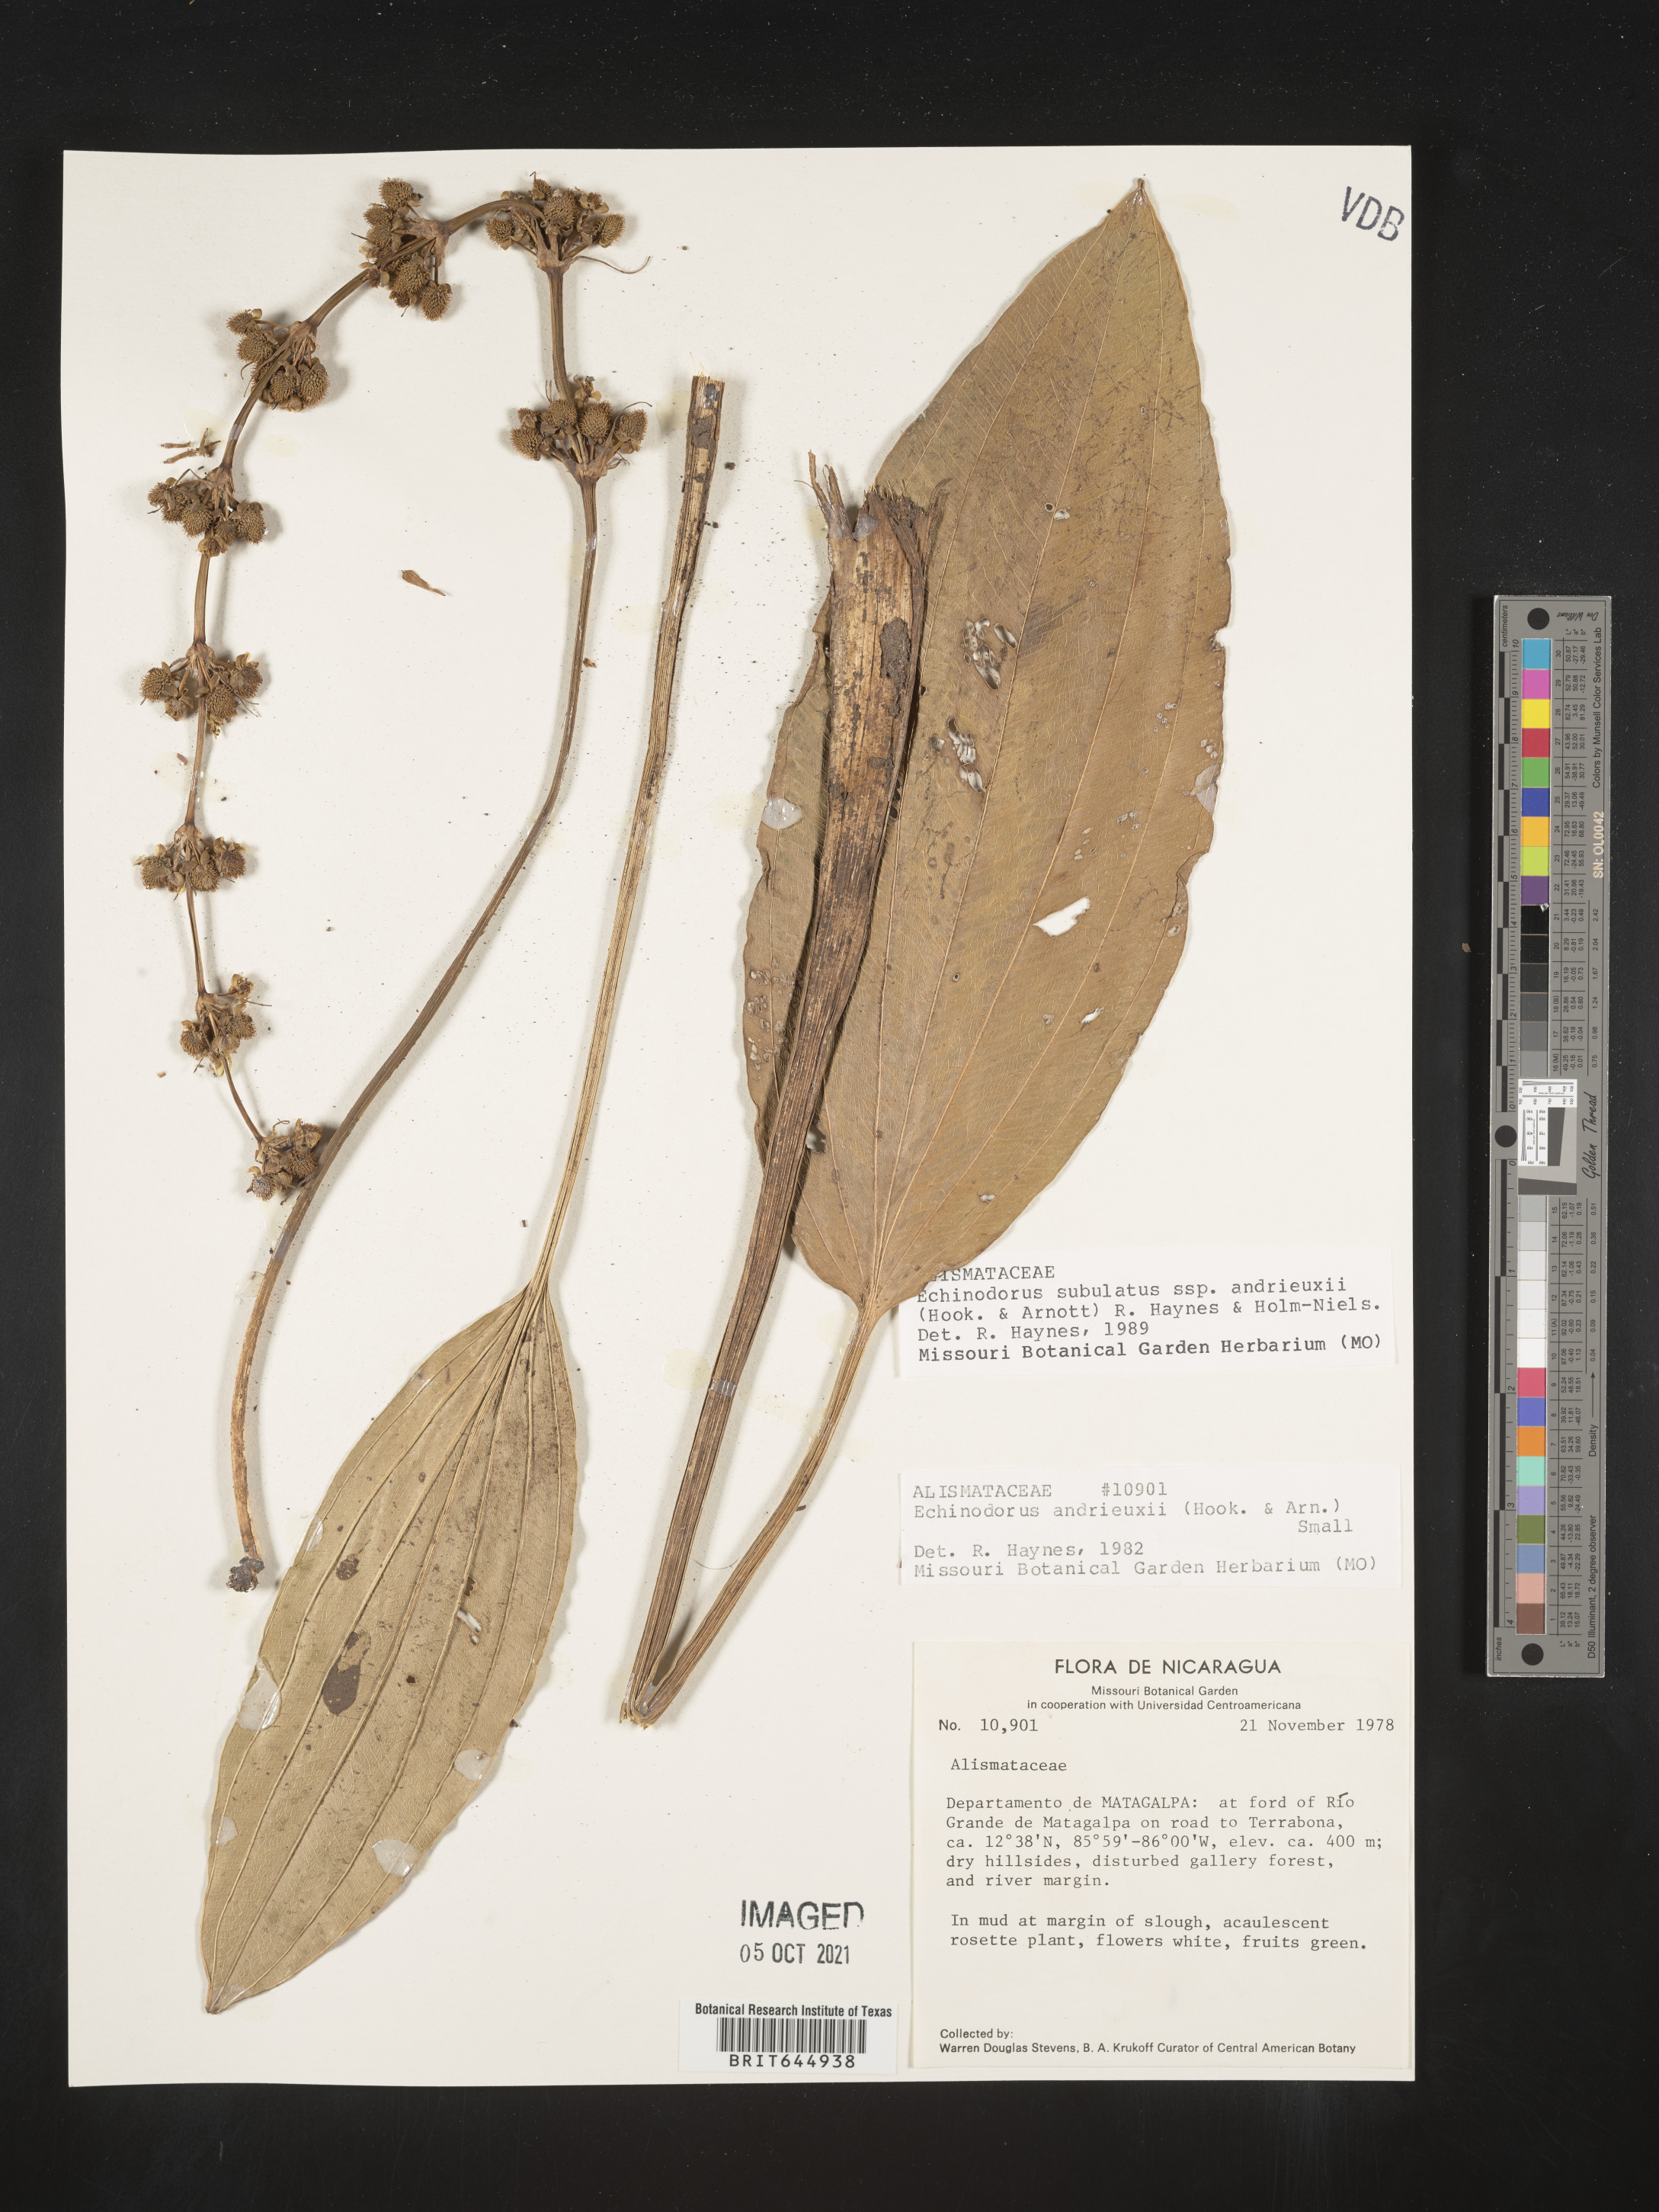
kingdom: Plantae
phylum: Tracheophyta
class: Liliopsida
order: Alismatales
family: Alismataceae
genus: Aquarius
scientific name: Aquarius subulatus
